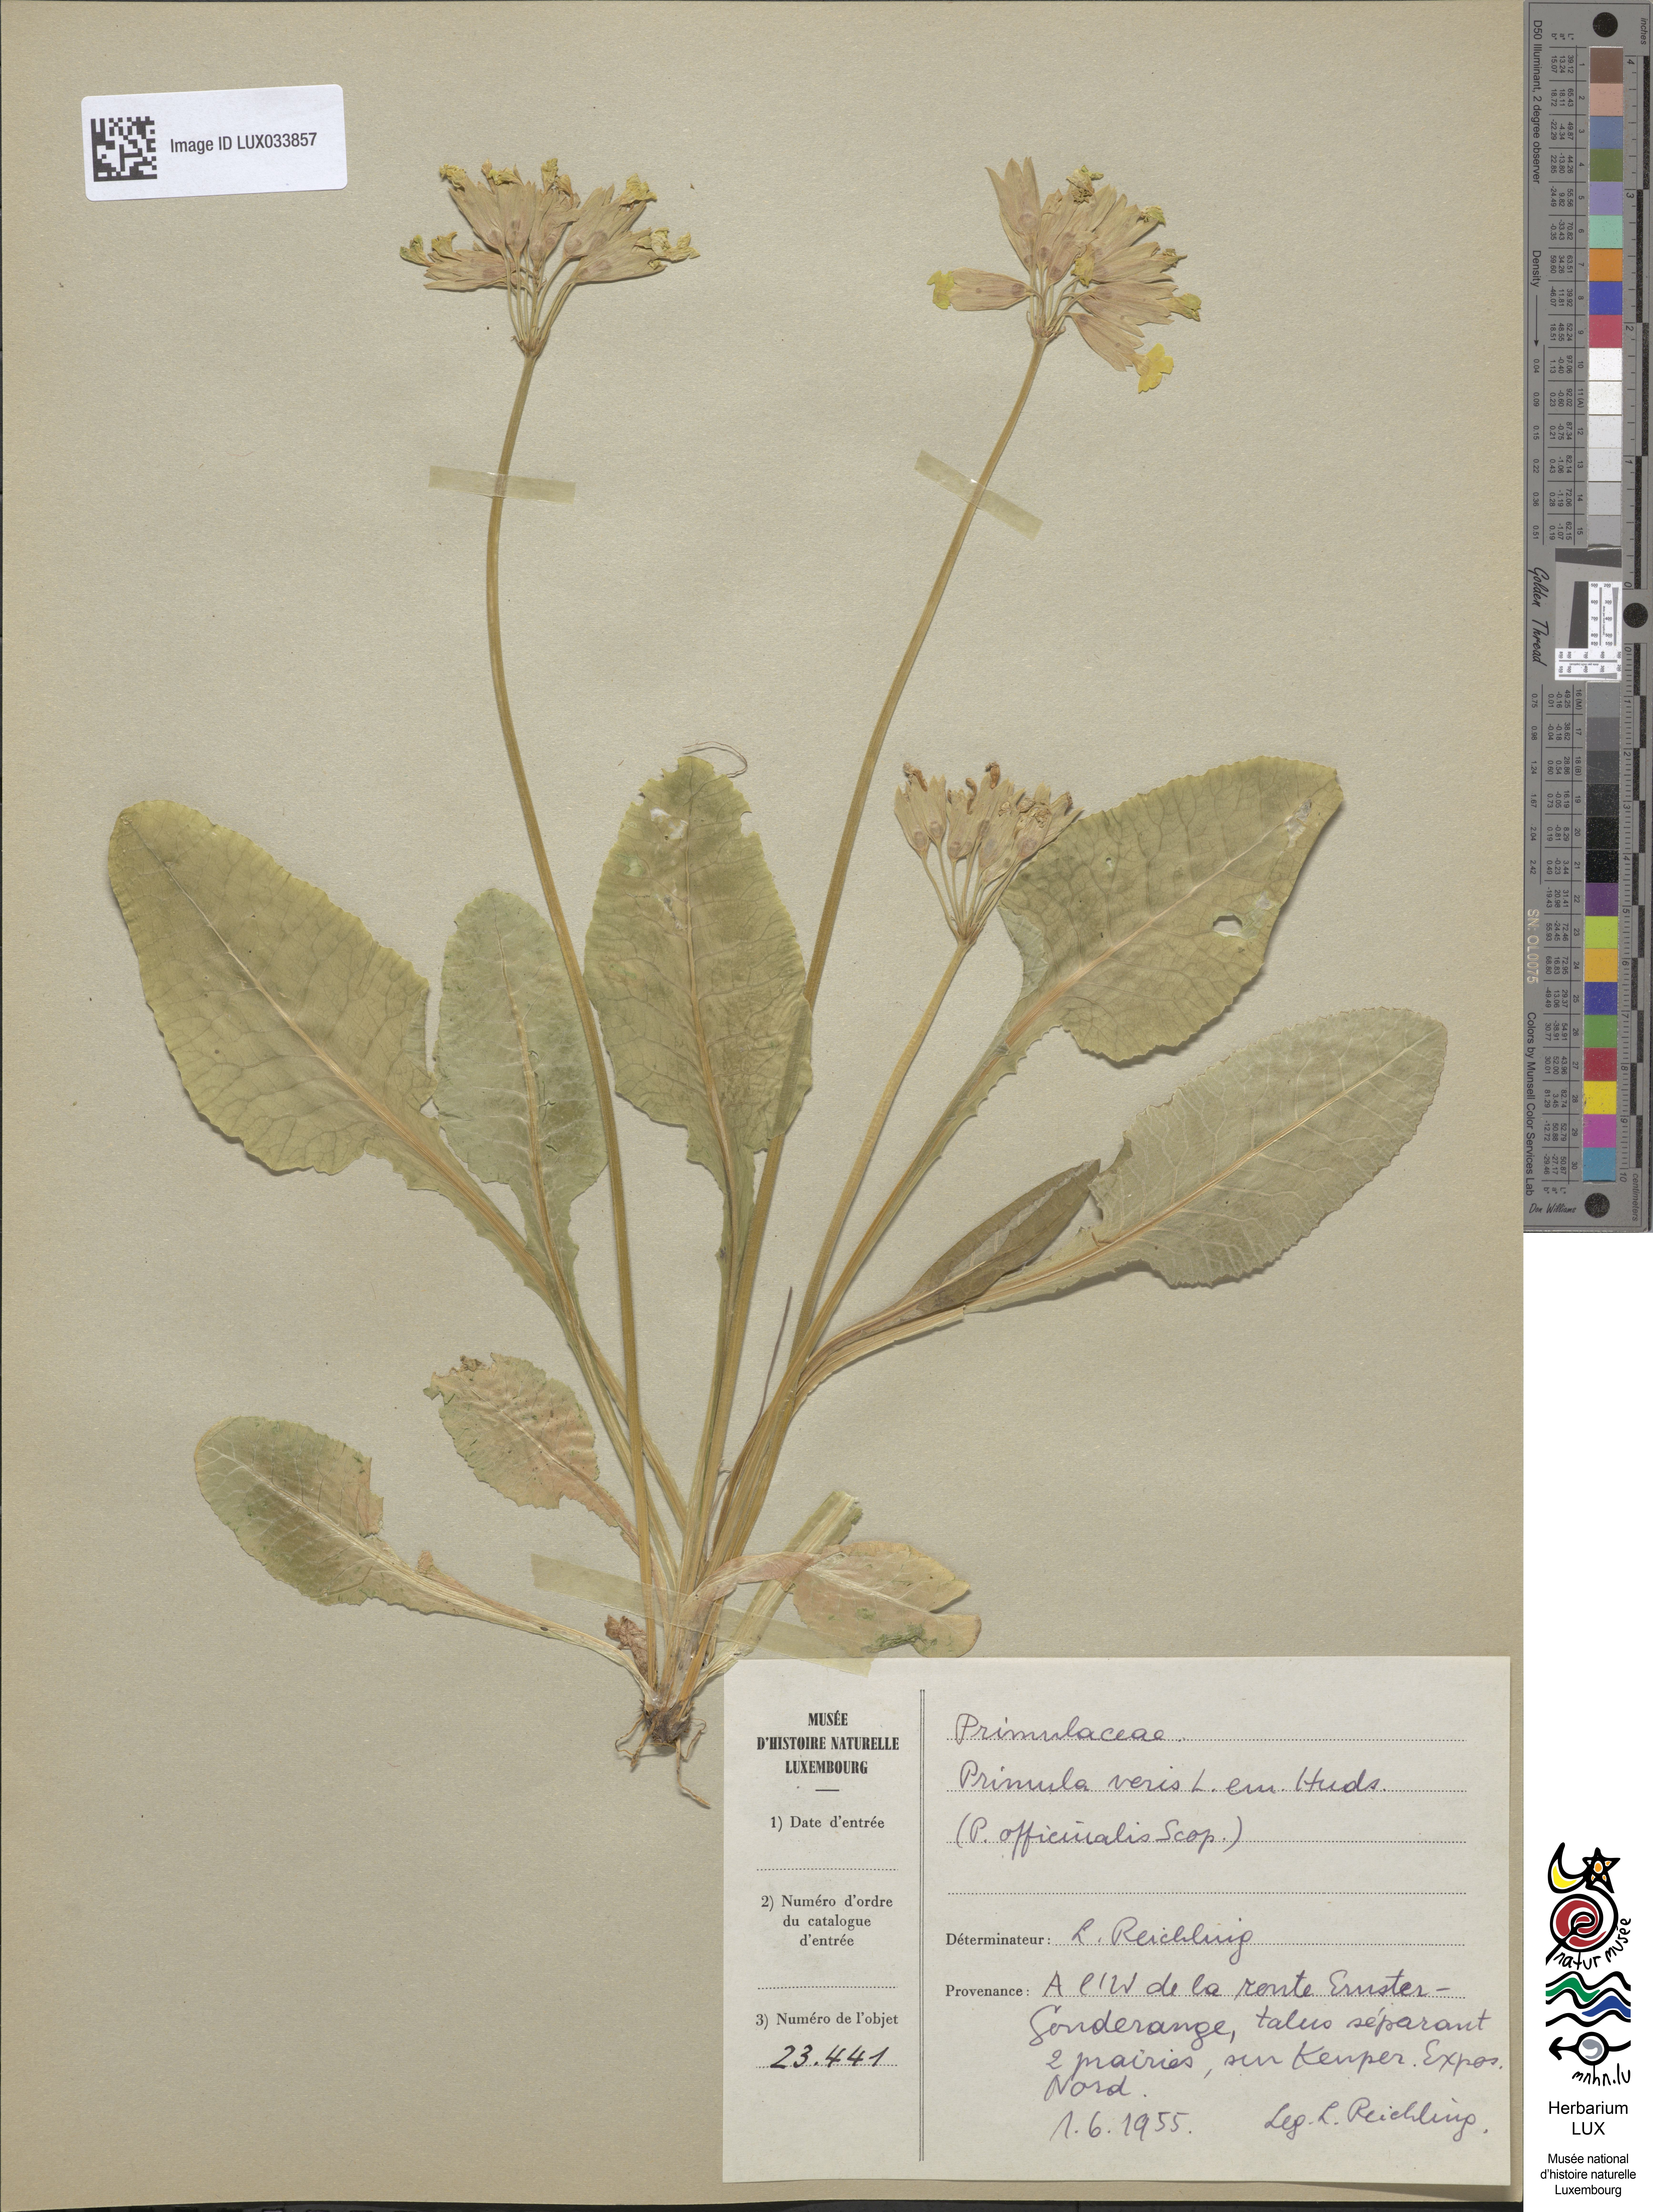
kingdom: Plantae
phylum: Tracheophyta
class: Magnoliopsida
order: Ericales
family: Primulaceae
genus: Primula
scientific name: Primula veris
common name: Cowslip
